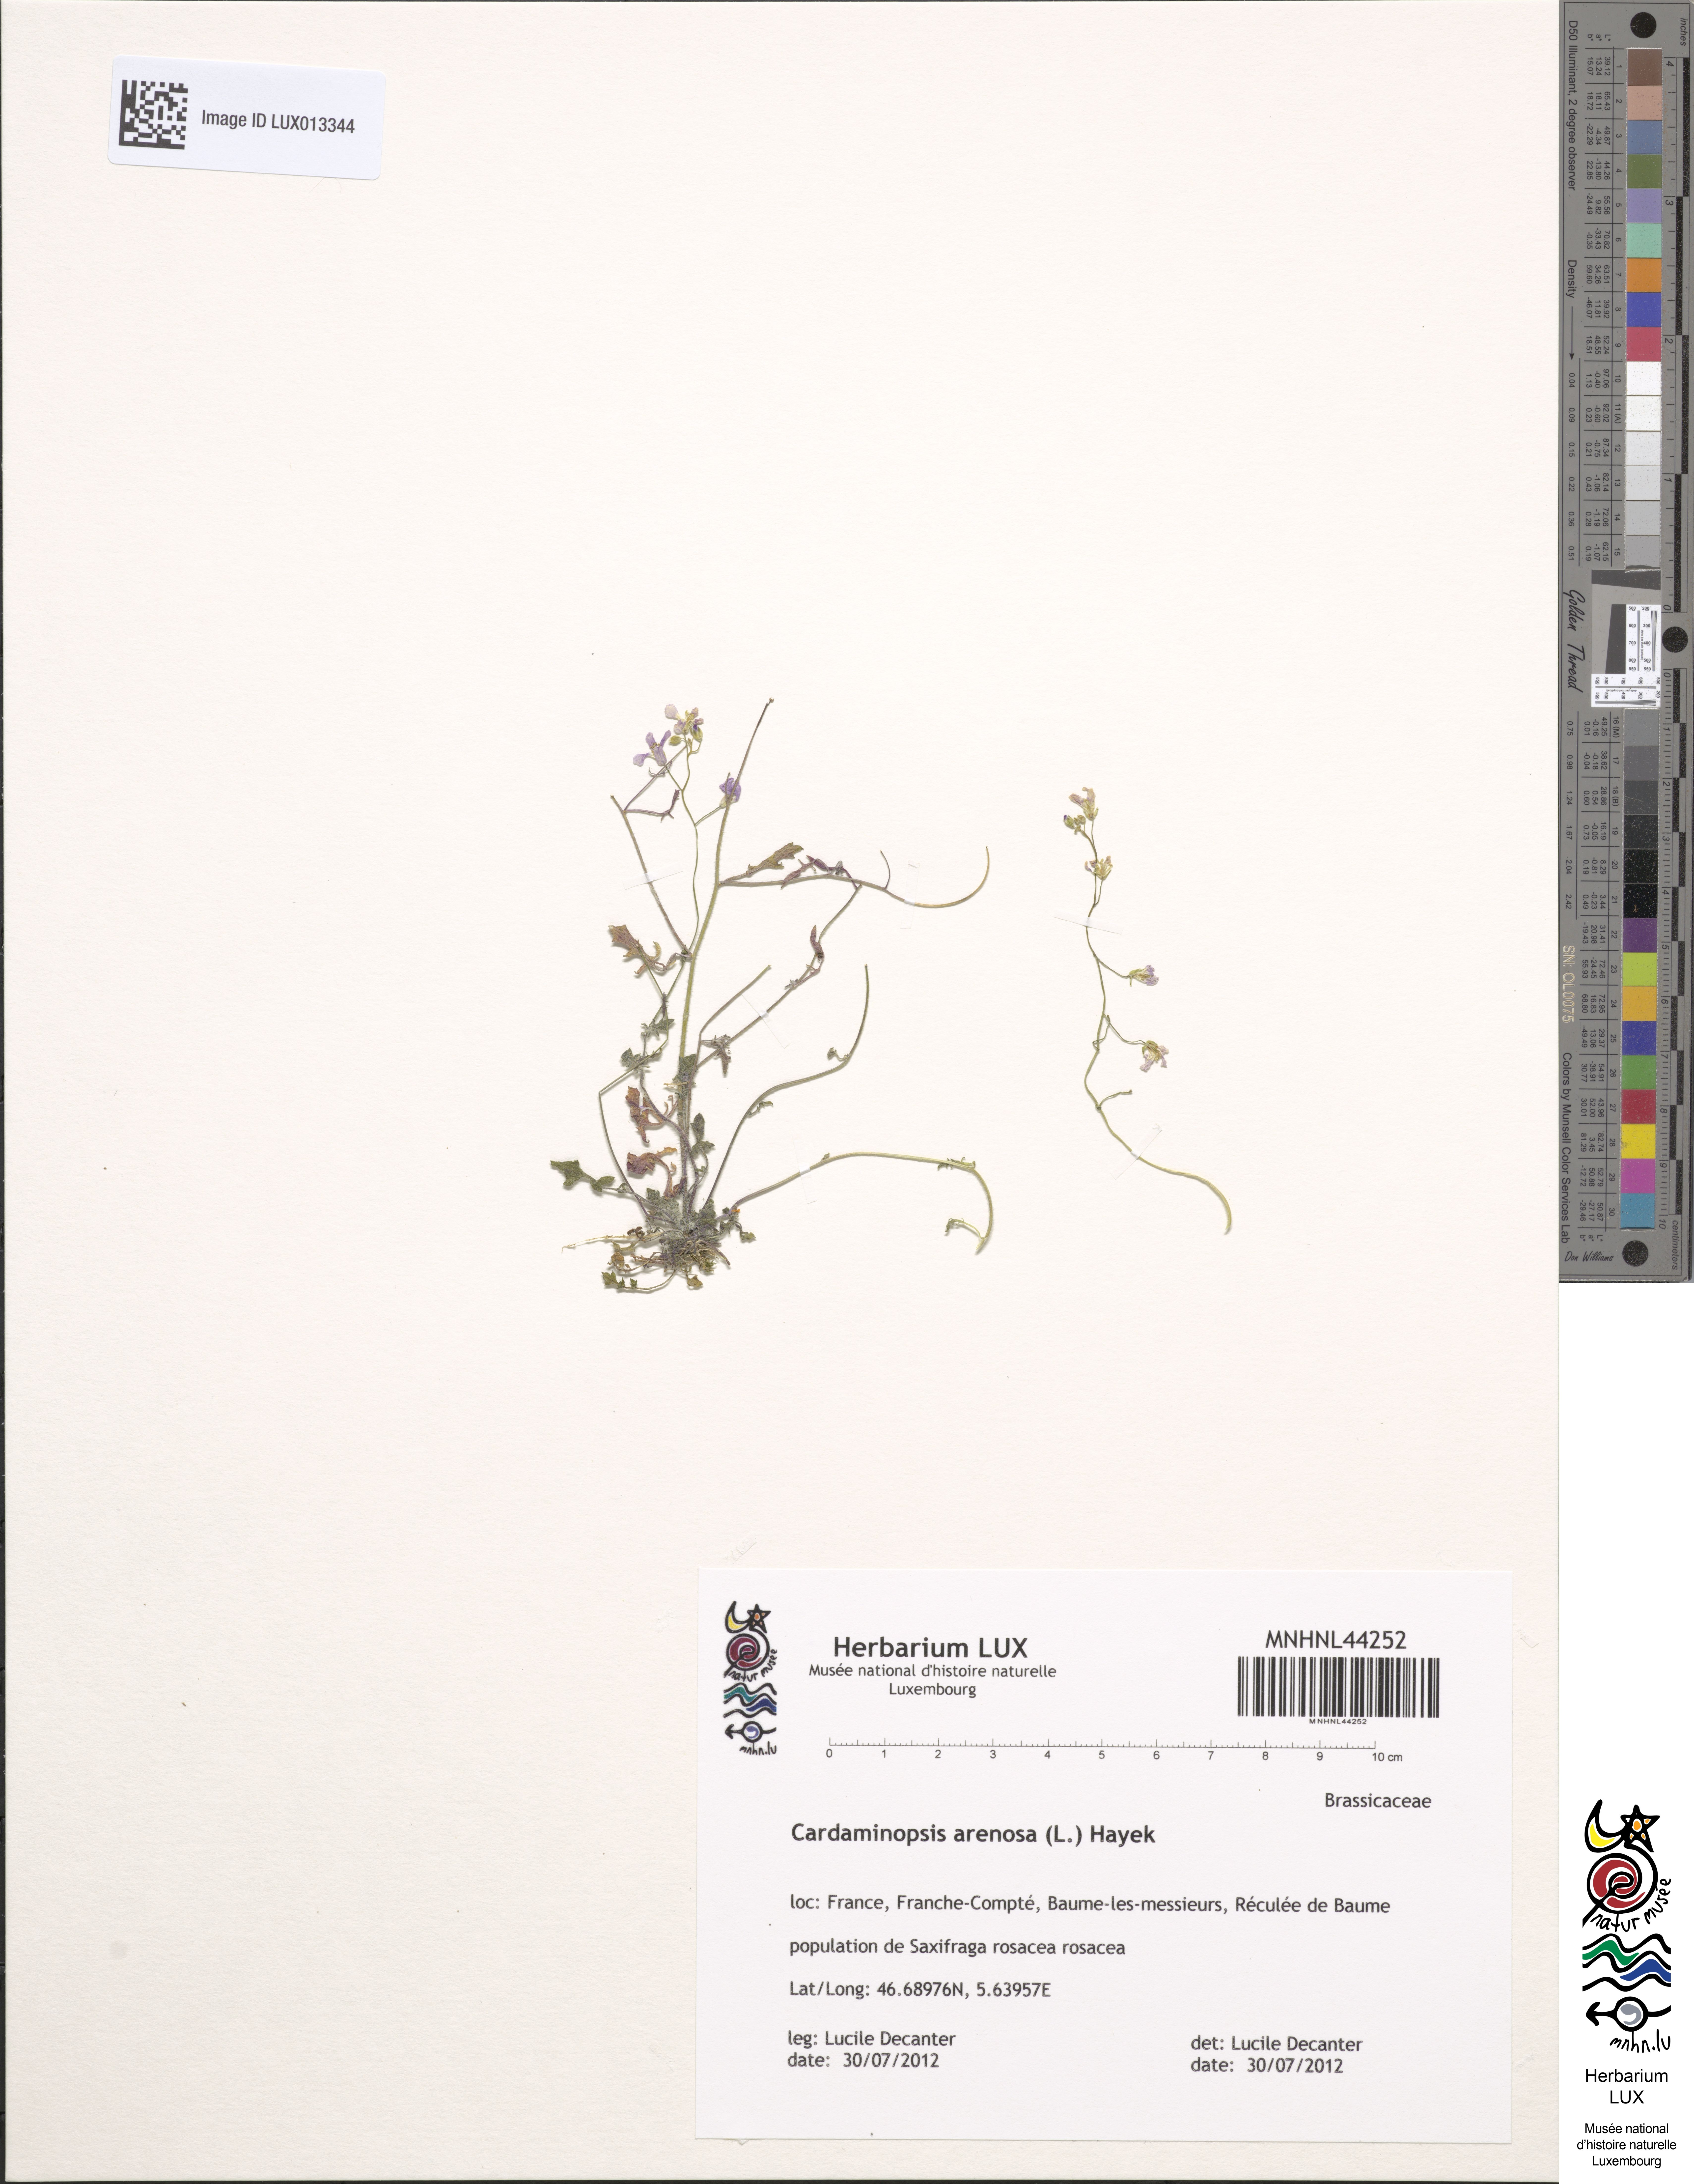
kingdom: Plantae
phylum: Tracheophyta
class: Magnoliopsida
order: Brassicales
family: Brassicaceae
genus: Arabidopsis
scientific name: Arabidopsis arenosa
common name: Sand rock-cress
